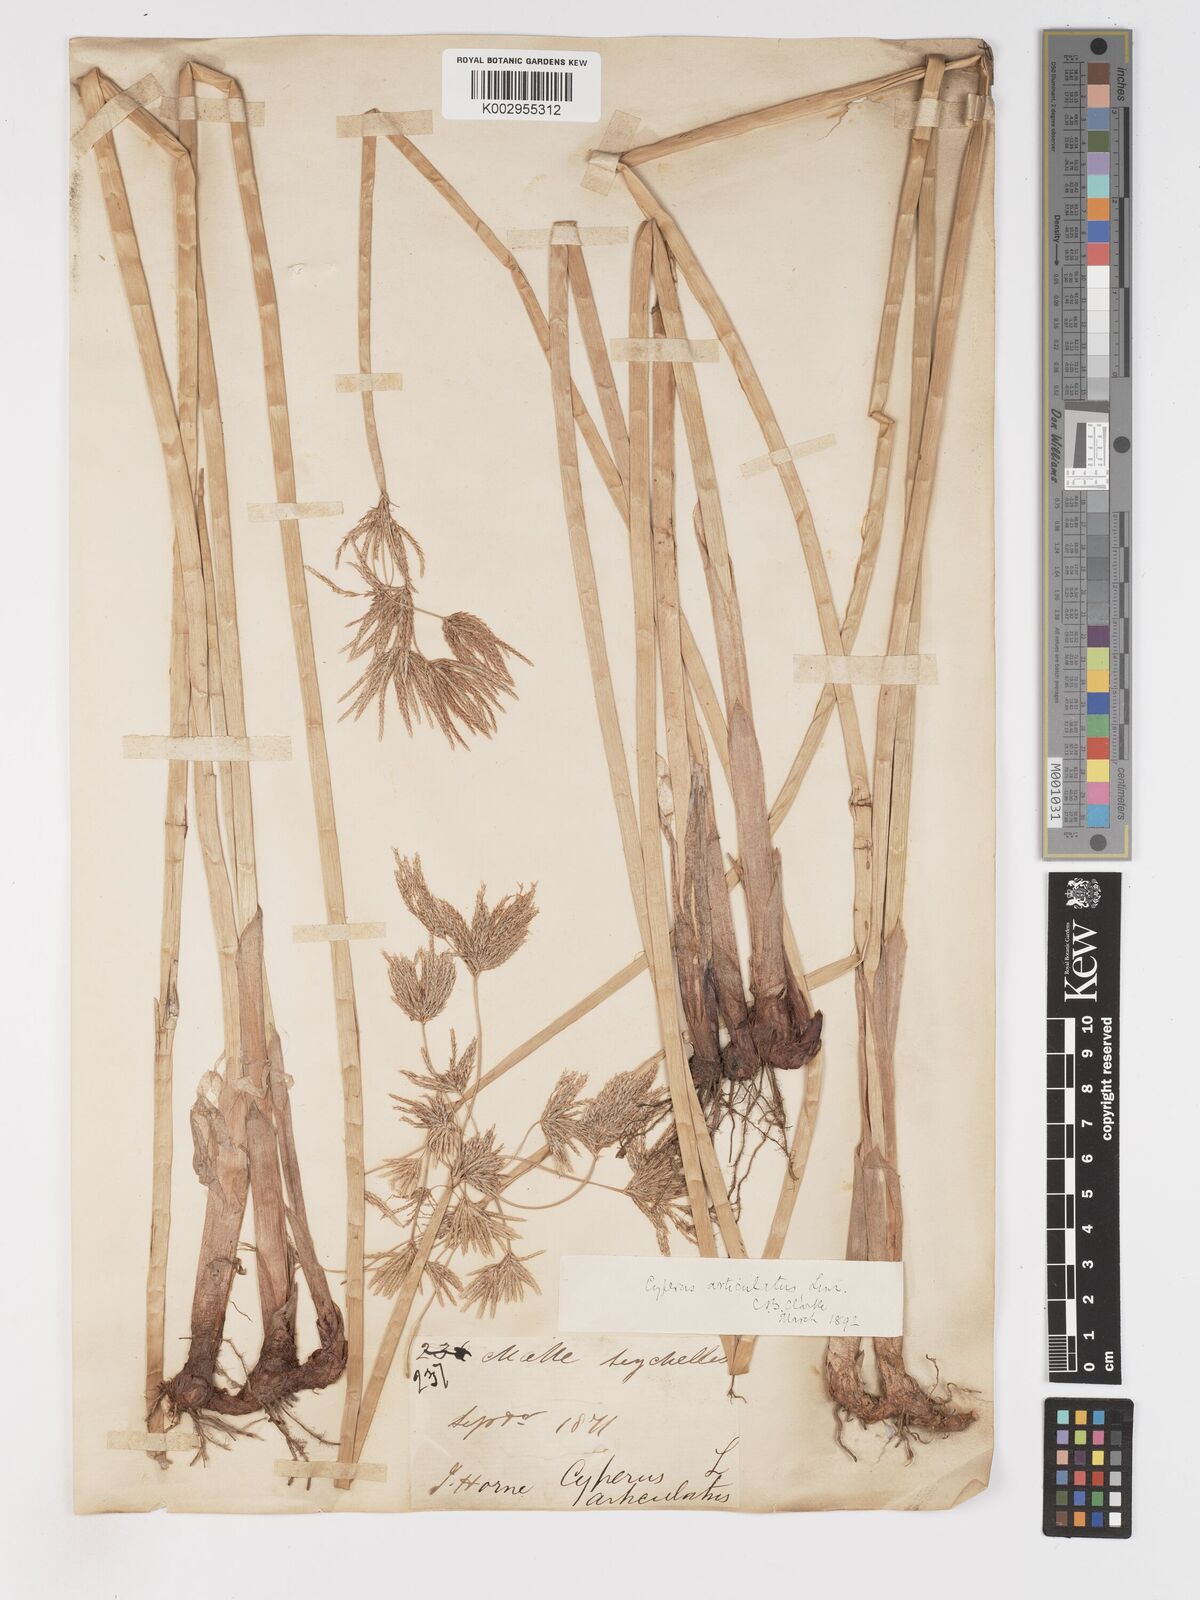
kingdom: Plantae
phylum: Tracheophyta
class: Liliopsida
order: Poales
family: Cyperaceae
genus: Cyperus
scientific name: Cyperus articulatus
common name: Jointed flatsedge
